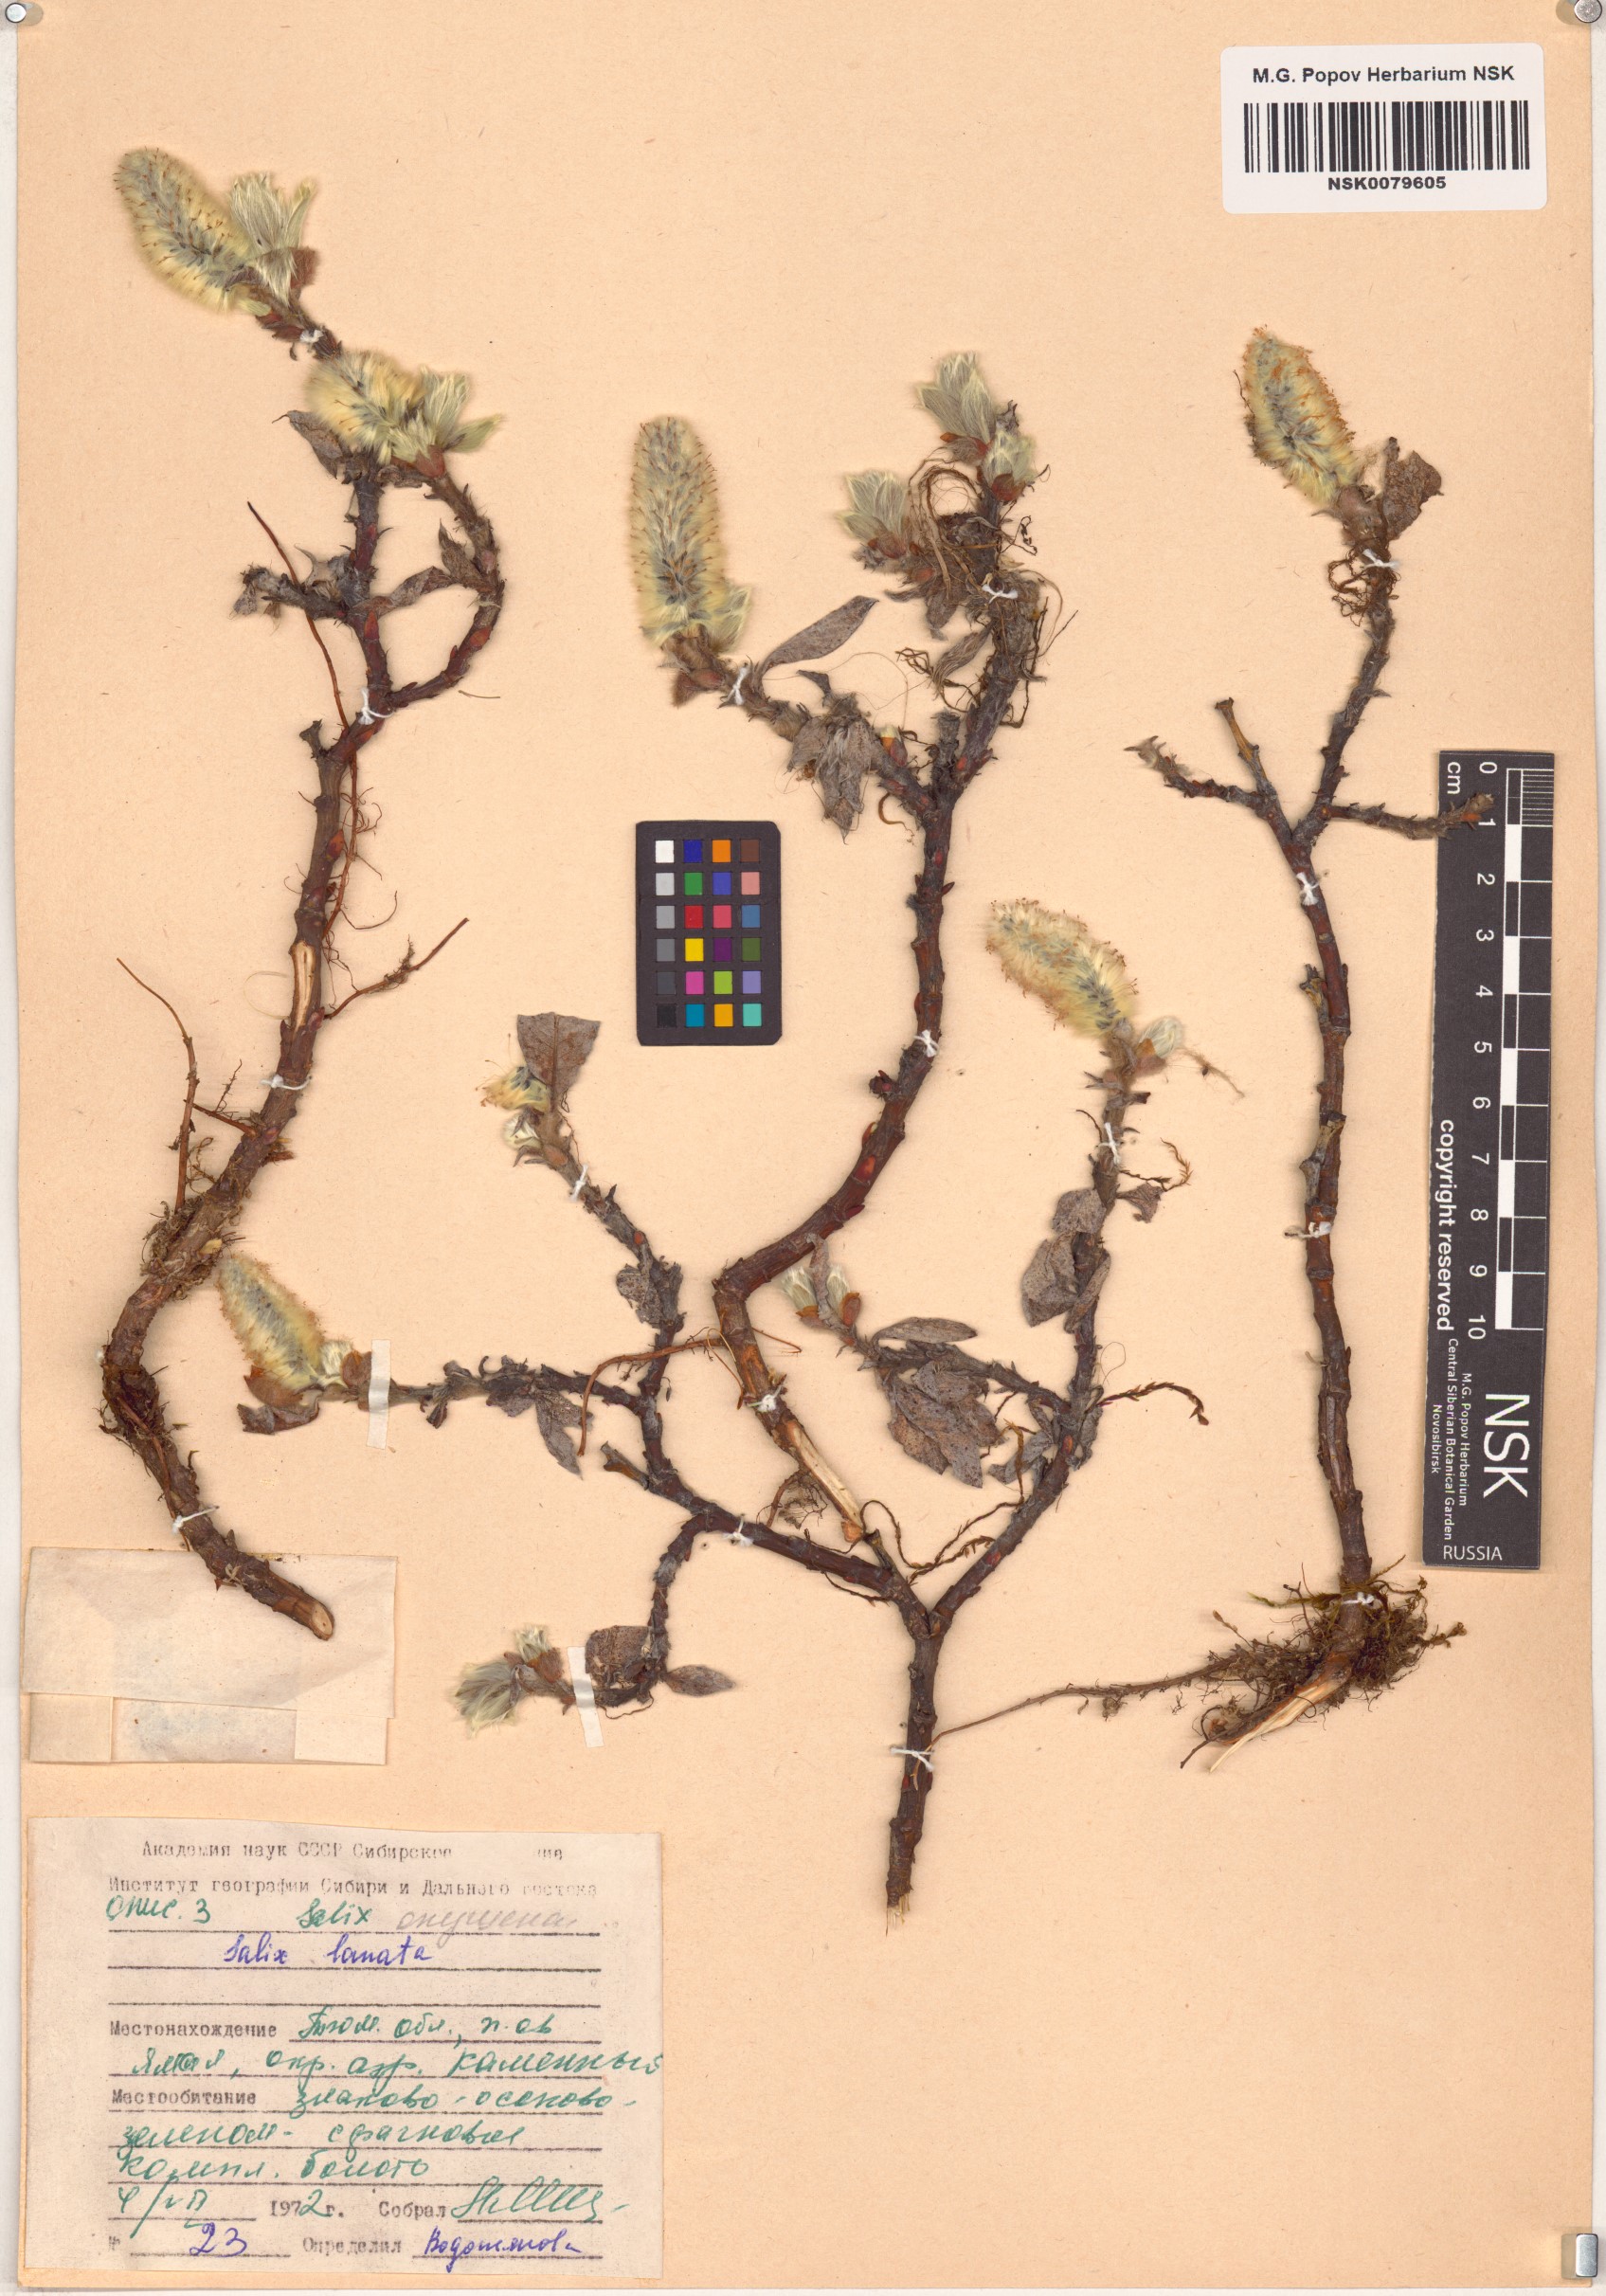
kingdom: Plantae
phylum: Tracheophyta
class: Magnoliopsida
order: Malpighiales
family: Salicaceae
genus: Salix
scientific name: Salix lanata
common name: Woolly willow
